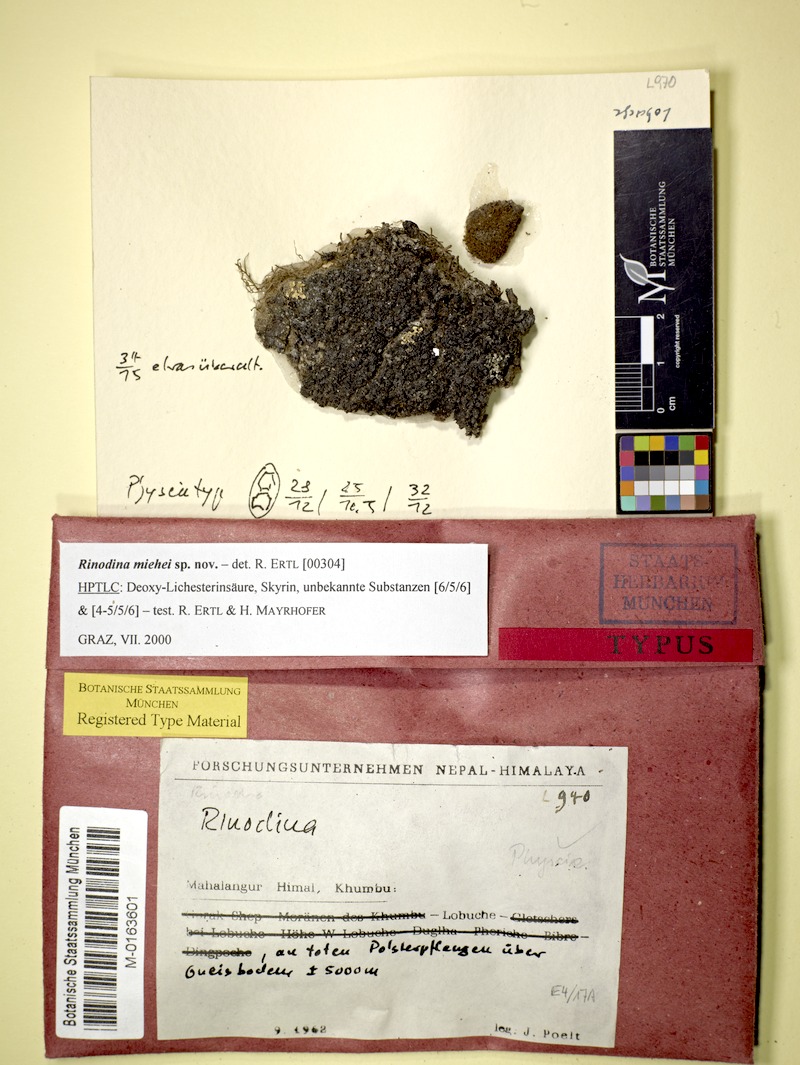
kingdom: Fungi
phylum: Ascomycota
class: Lecanoromycetes
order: Caliciales
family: Physciaceae
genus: Rinodina
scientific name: Rinodina
